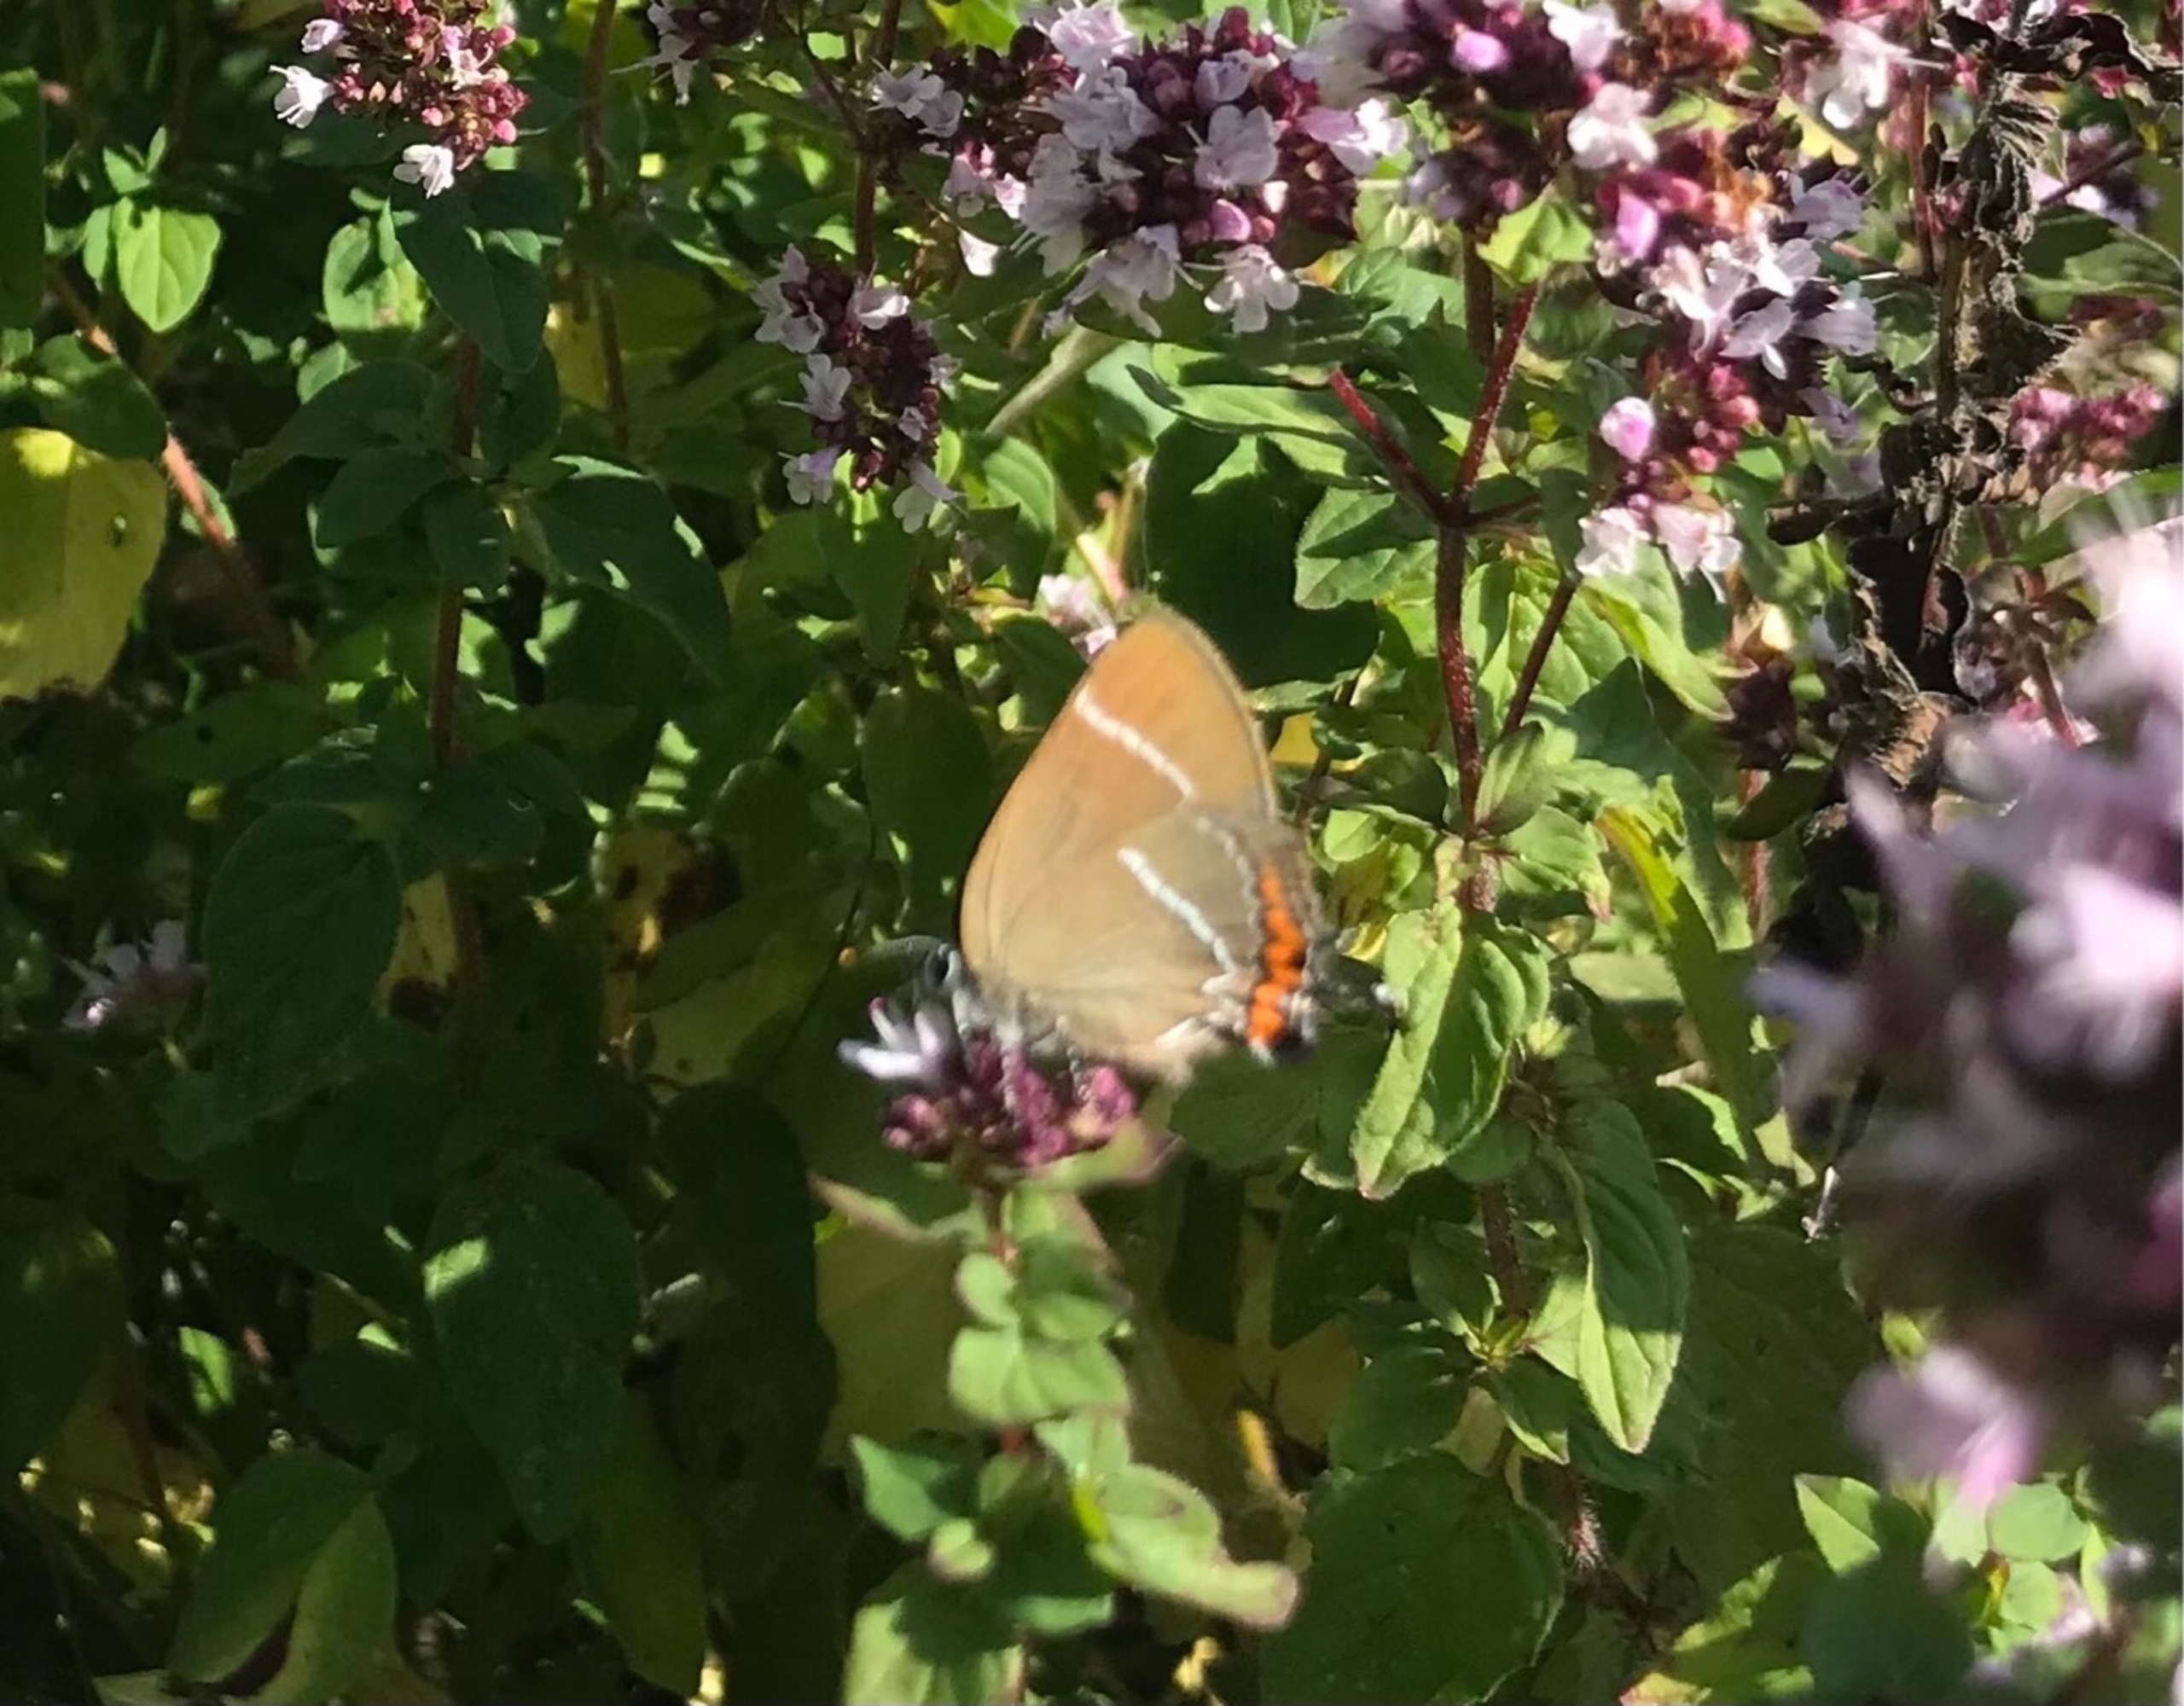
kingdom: Animalia
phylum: Arthropoda
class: Insecta
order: Lepidoptera
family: Lycaenidae
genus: Satyrium
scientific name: Satyrium w-album
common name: Det hvide W
